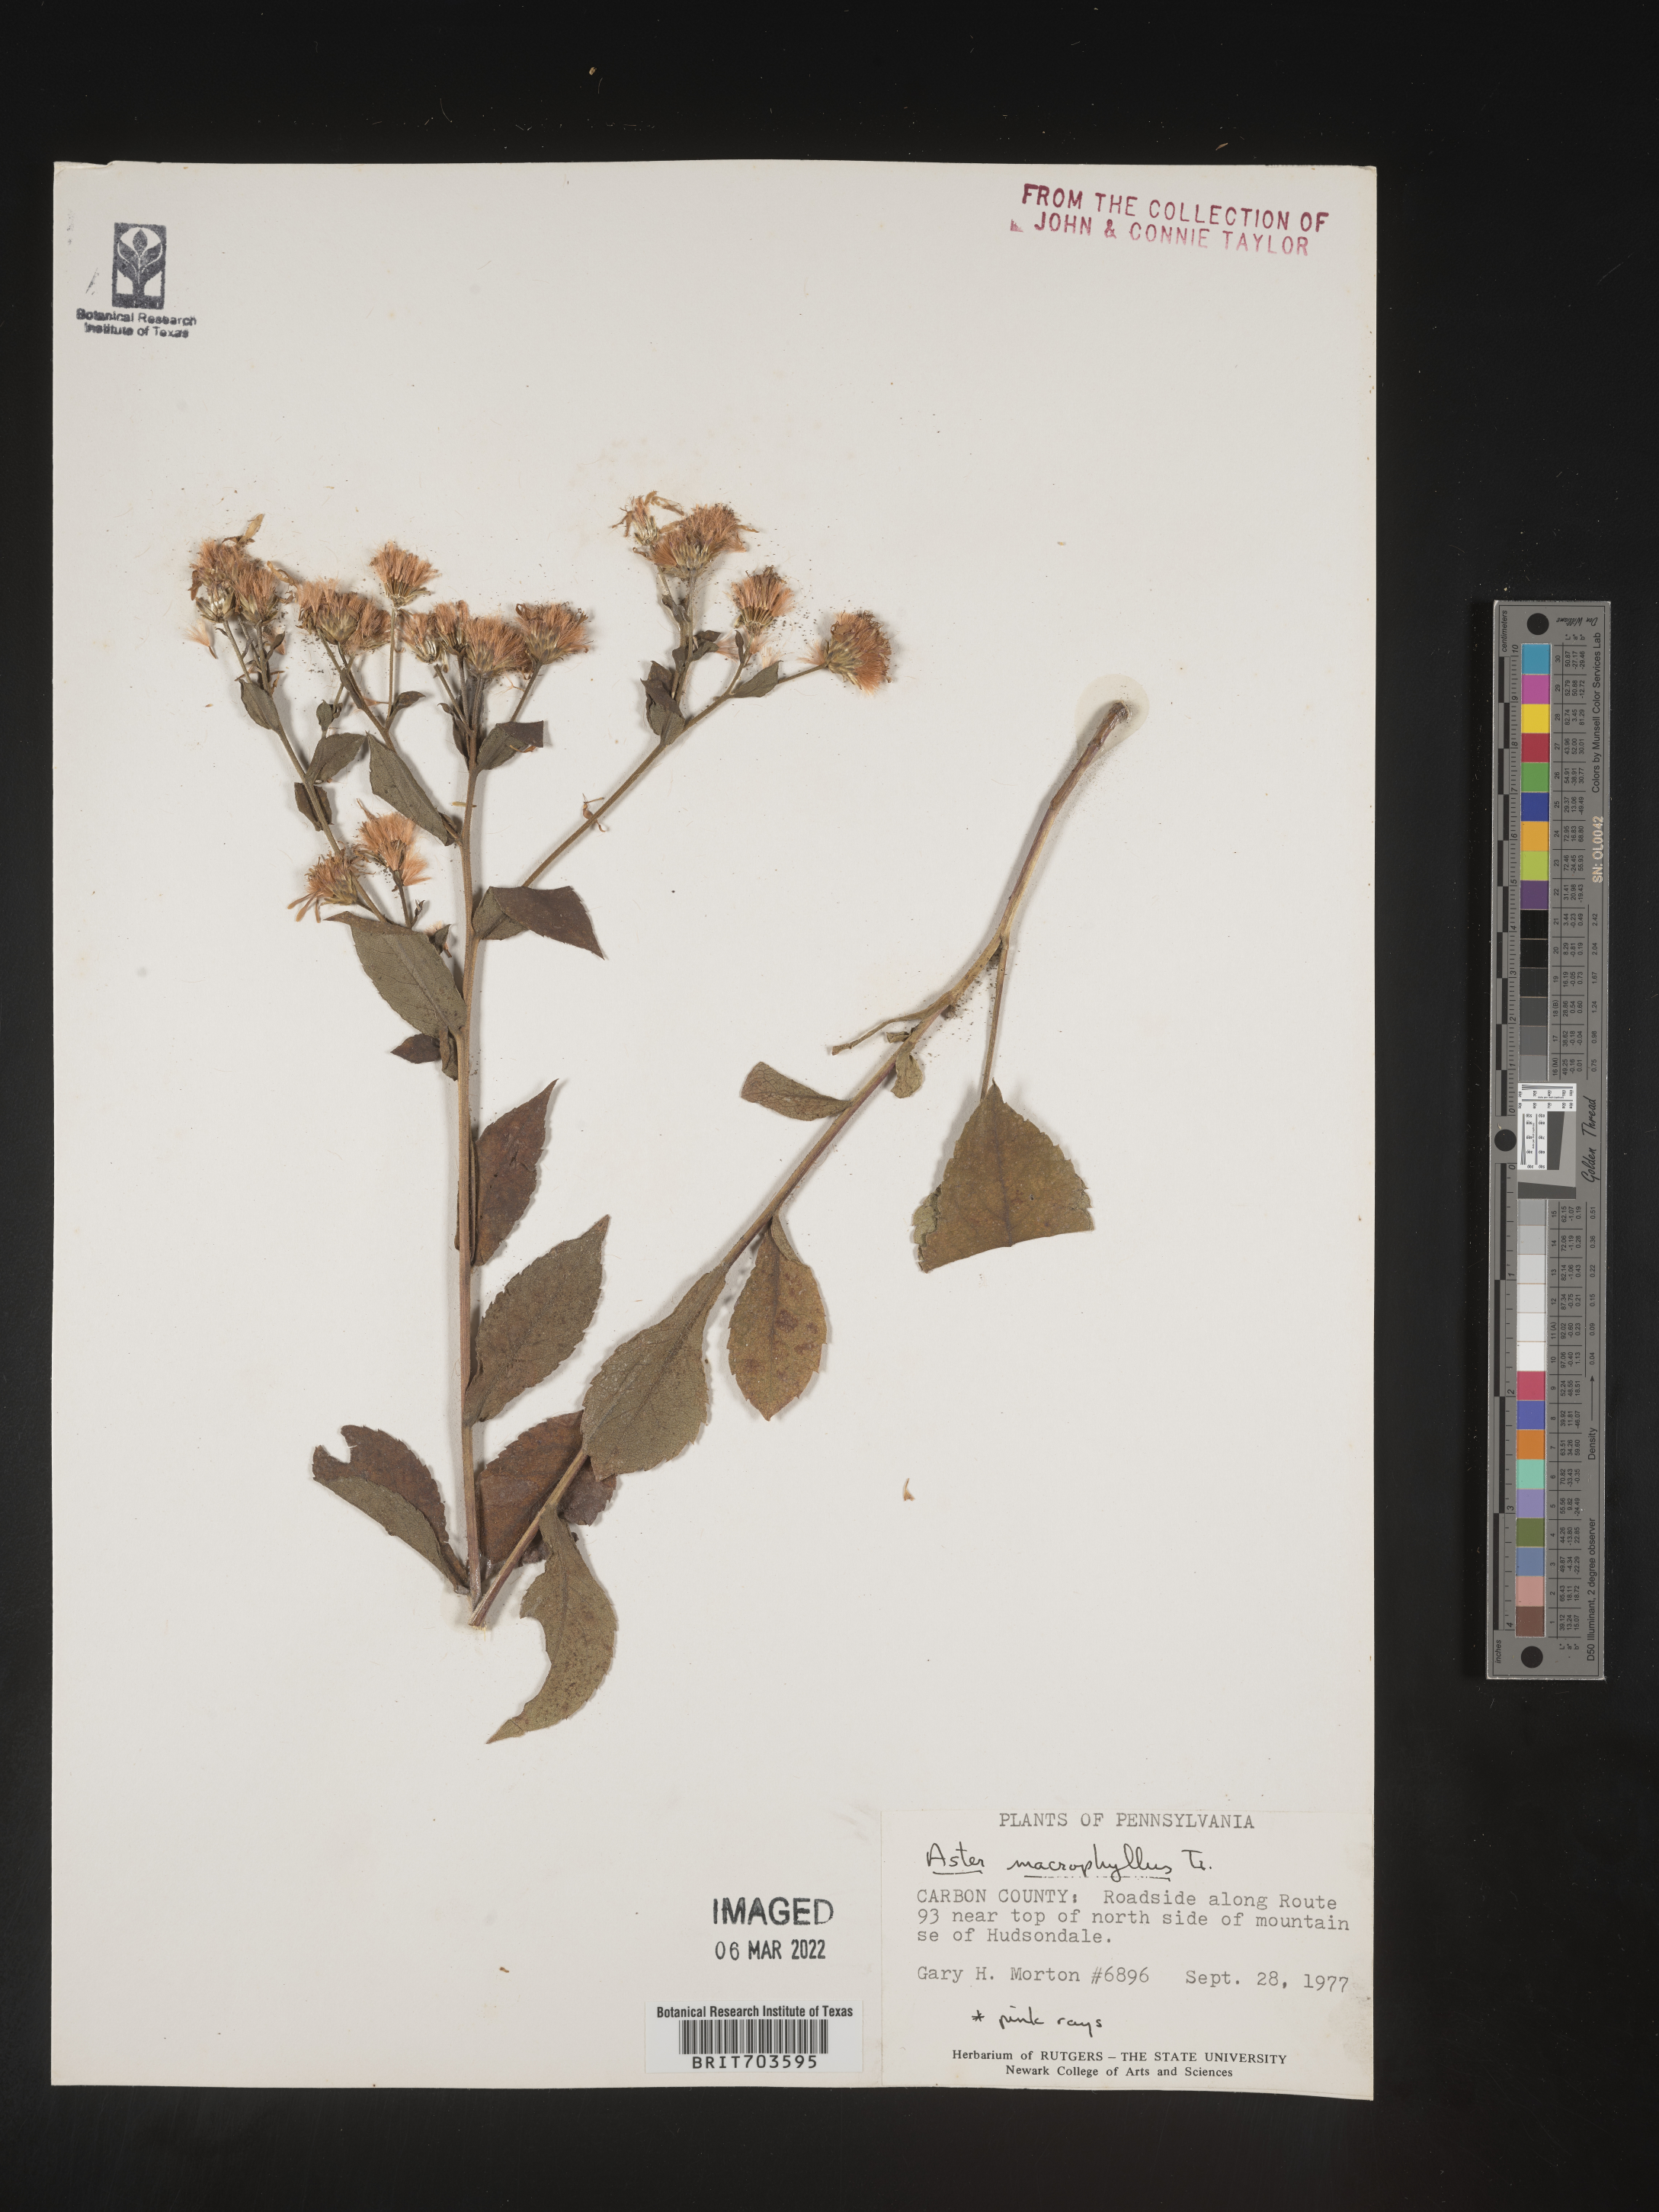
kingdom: Plantae
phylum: Tracheophyta
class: Magnoliopsida
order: Asterales
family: Asteraceae
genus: Eurybia
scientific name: Eurybia macrophylla
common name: Big-leaved aster
